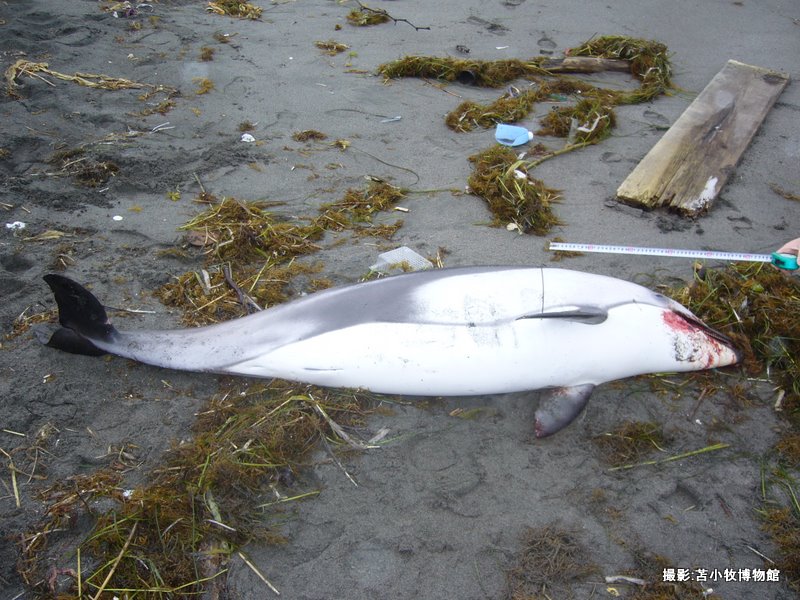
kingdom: Animalia
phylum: Chordata
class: Mammalia
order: Cetacea
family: Delphinidae
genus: Lagenorhynchus
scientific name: Lagenorhynchus obliquidens
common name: Pacific white-sided dolphin
